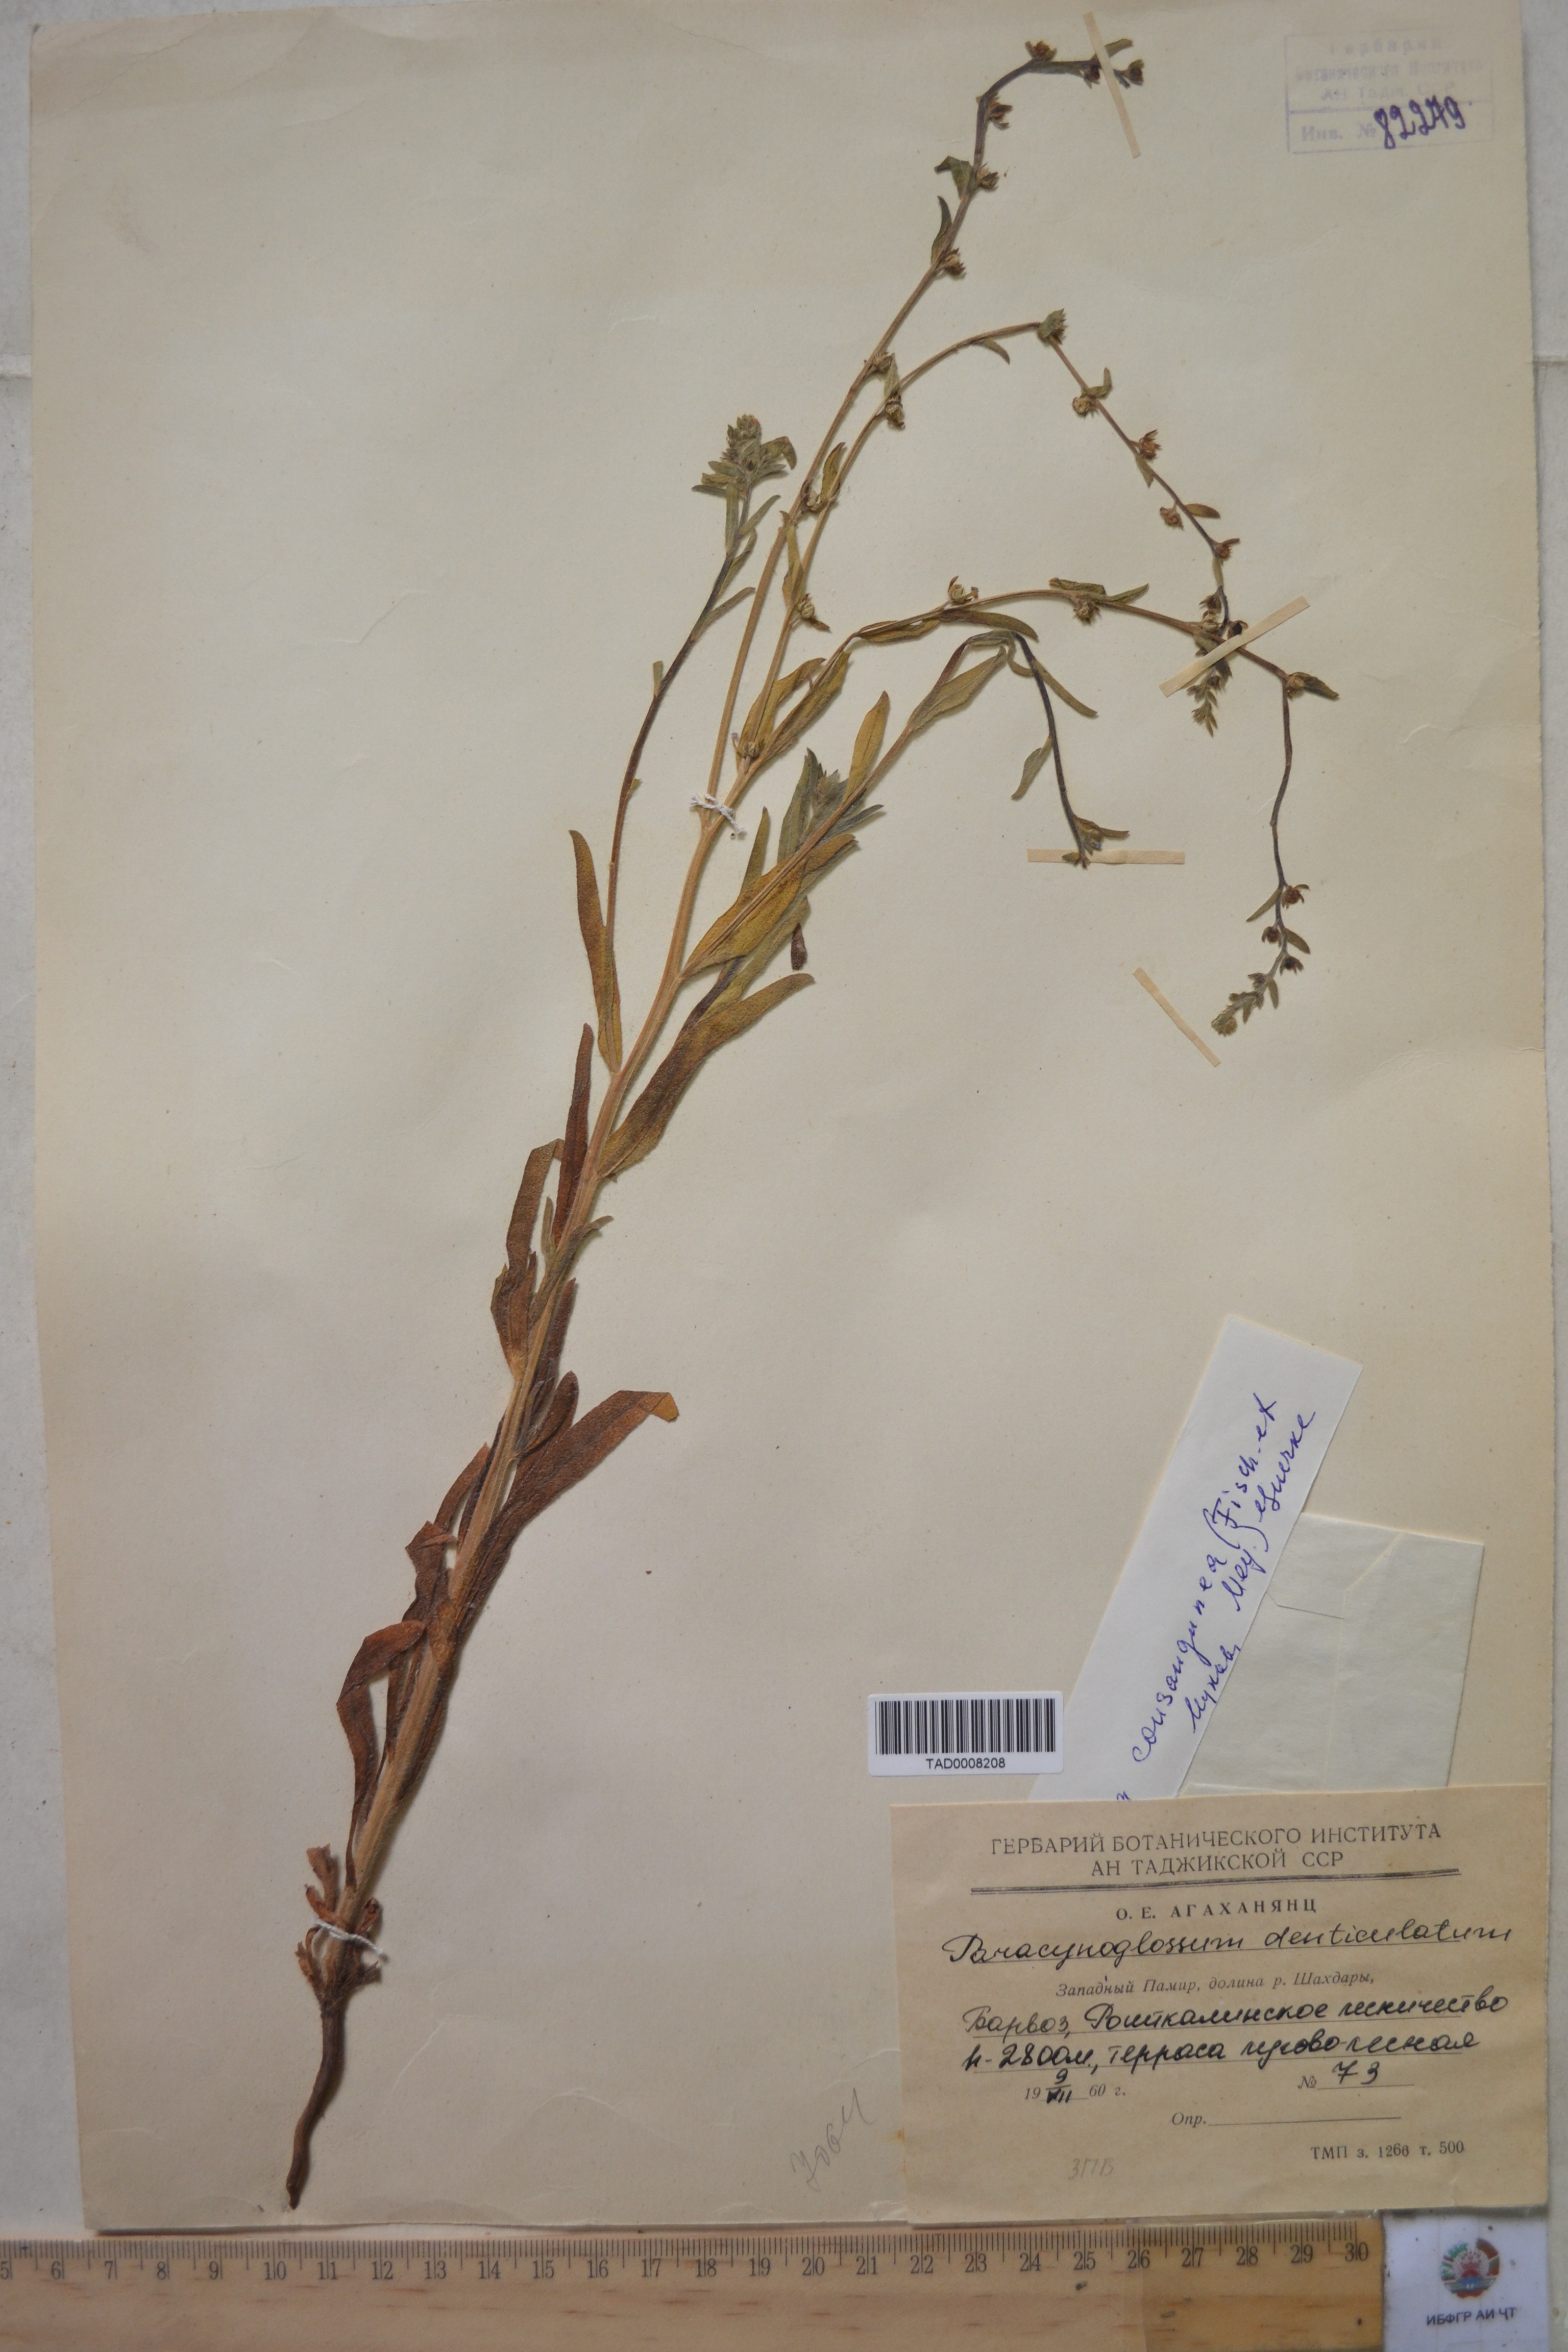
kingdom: Plantae
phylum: Tracheophyta
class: Magnoliopsida
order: Boraginales
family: Boraginaceae
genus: Paracynoglossum
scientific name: Paracynoglossum glochidiatum
